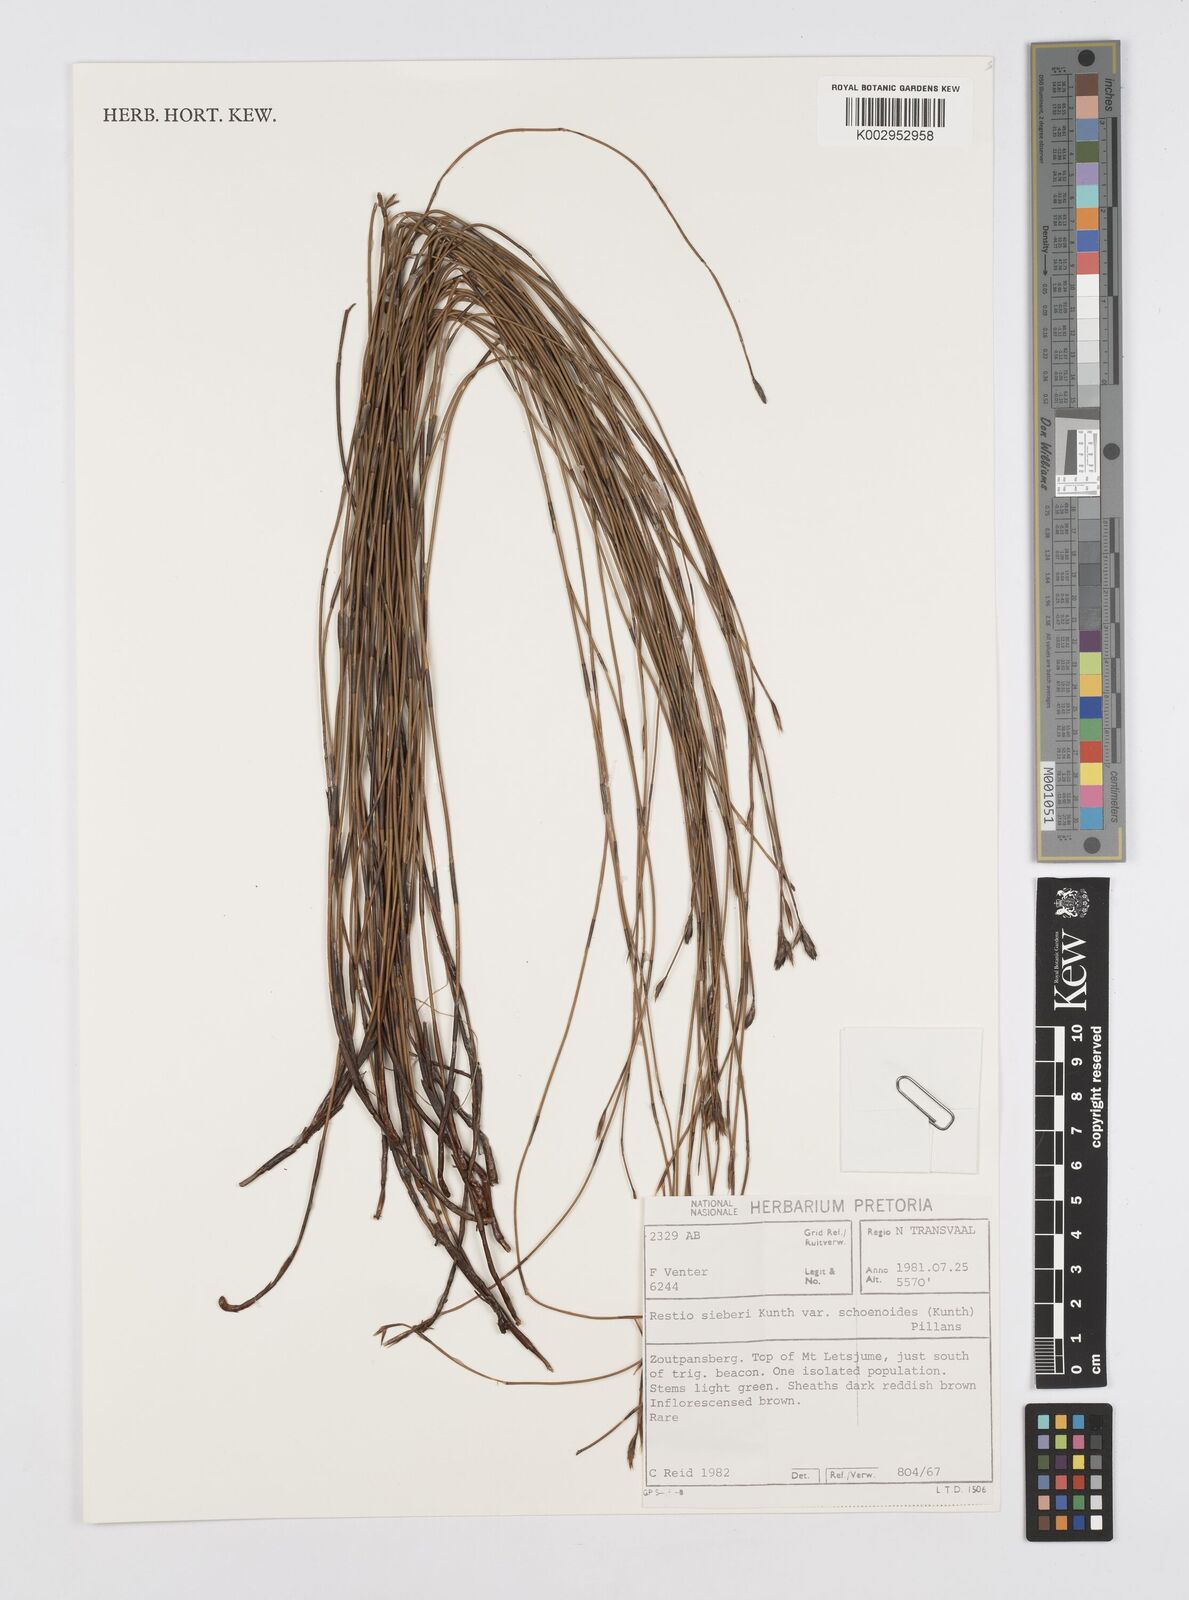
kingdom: Plantae
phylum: Tracheophyta
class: Liliopsida
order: Poales
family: Restionaceae
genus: Restio
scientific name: Restio schoenoides
